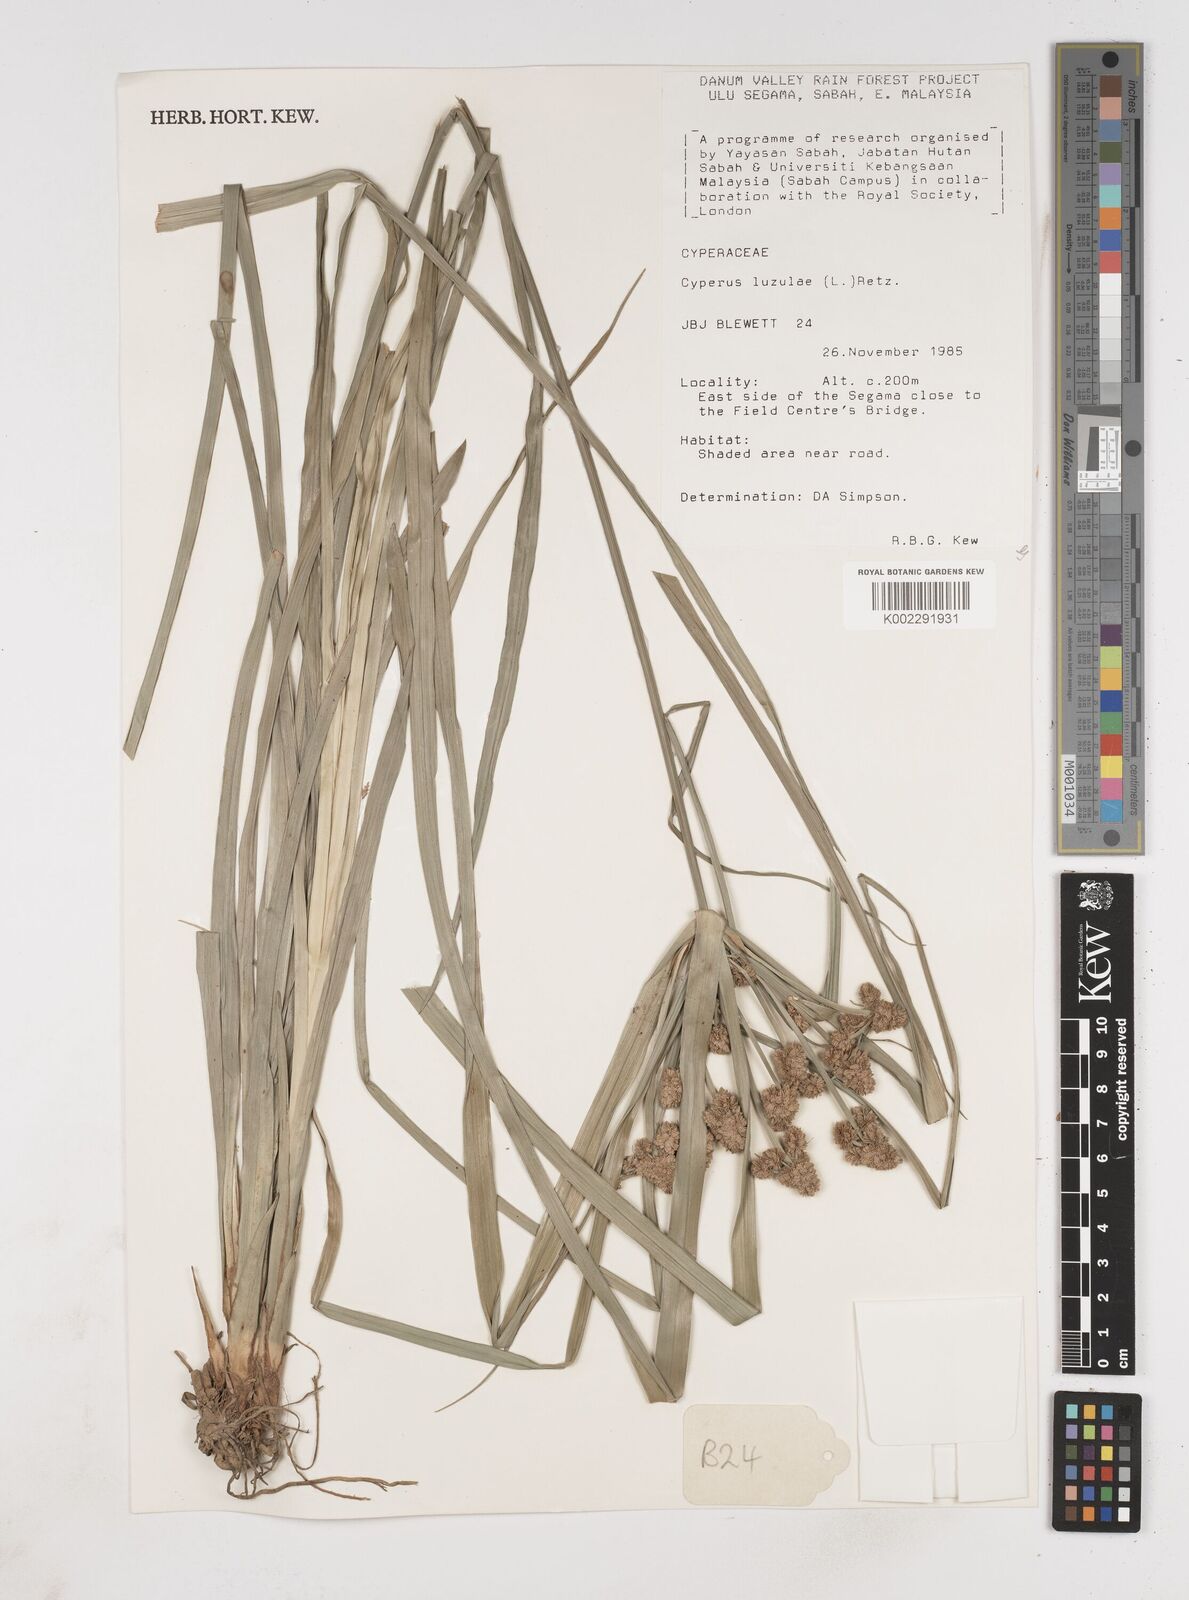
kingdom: Plantae
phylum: Tracheophyta
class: Liliopsida
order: Poales
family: Cyperaceae
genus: Cyperus
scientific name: Cyperus luzulae
